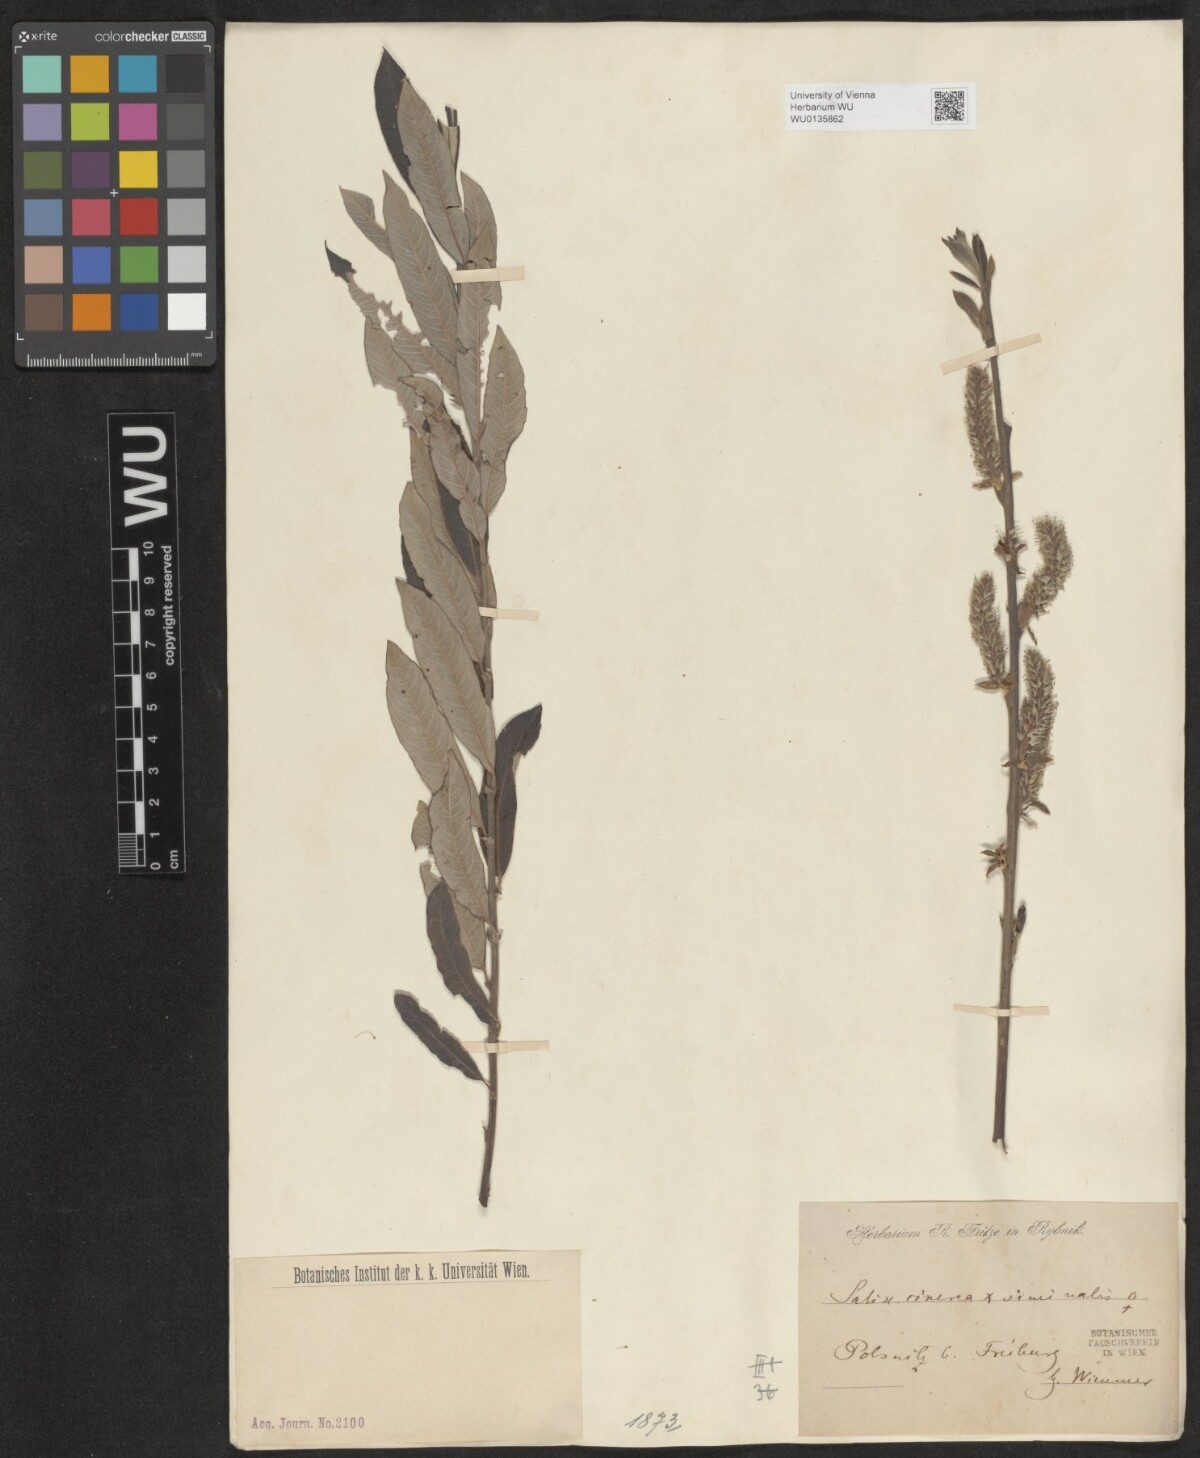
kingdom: Plantae
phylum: Tracheophyta
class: Magnoliopsida
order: Malpighiales
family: Salicaceae
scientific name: Salicaceae
